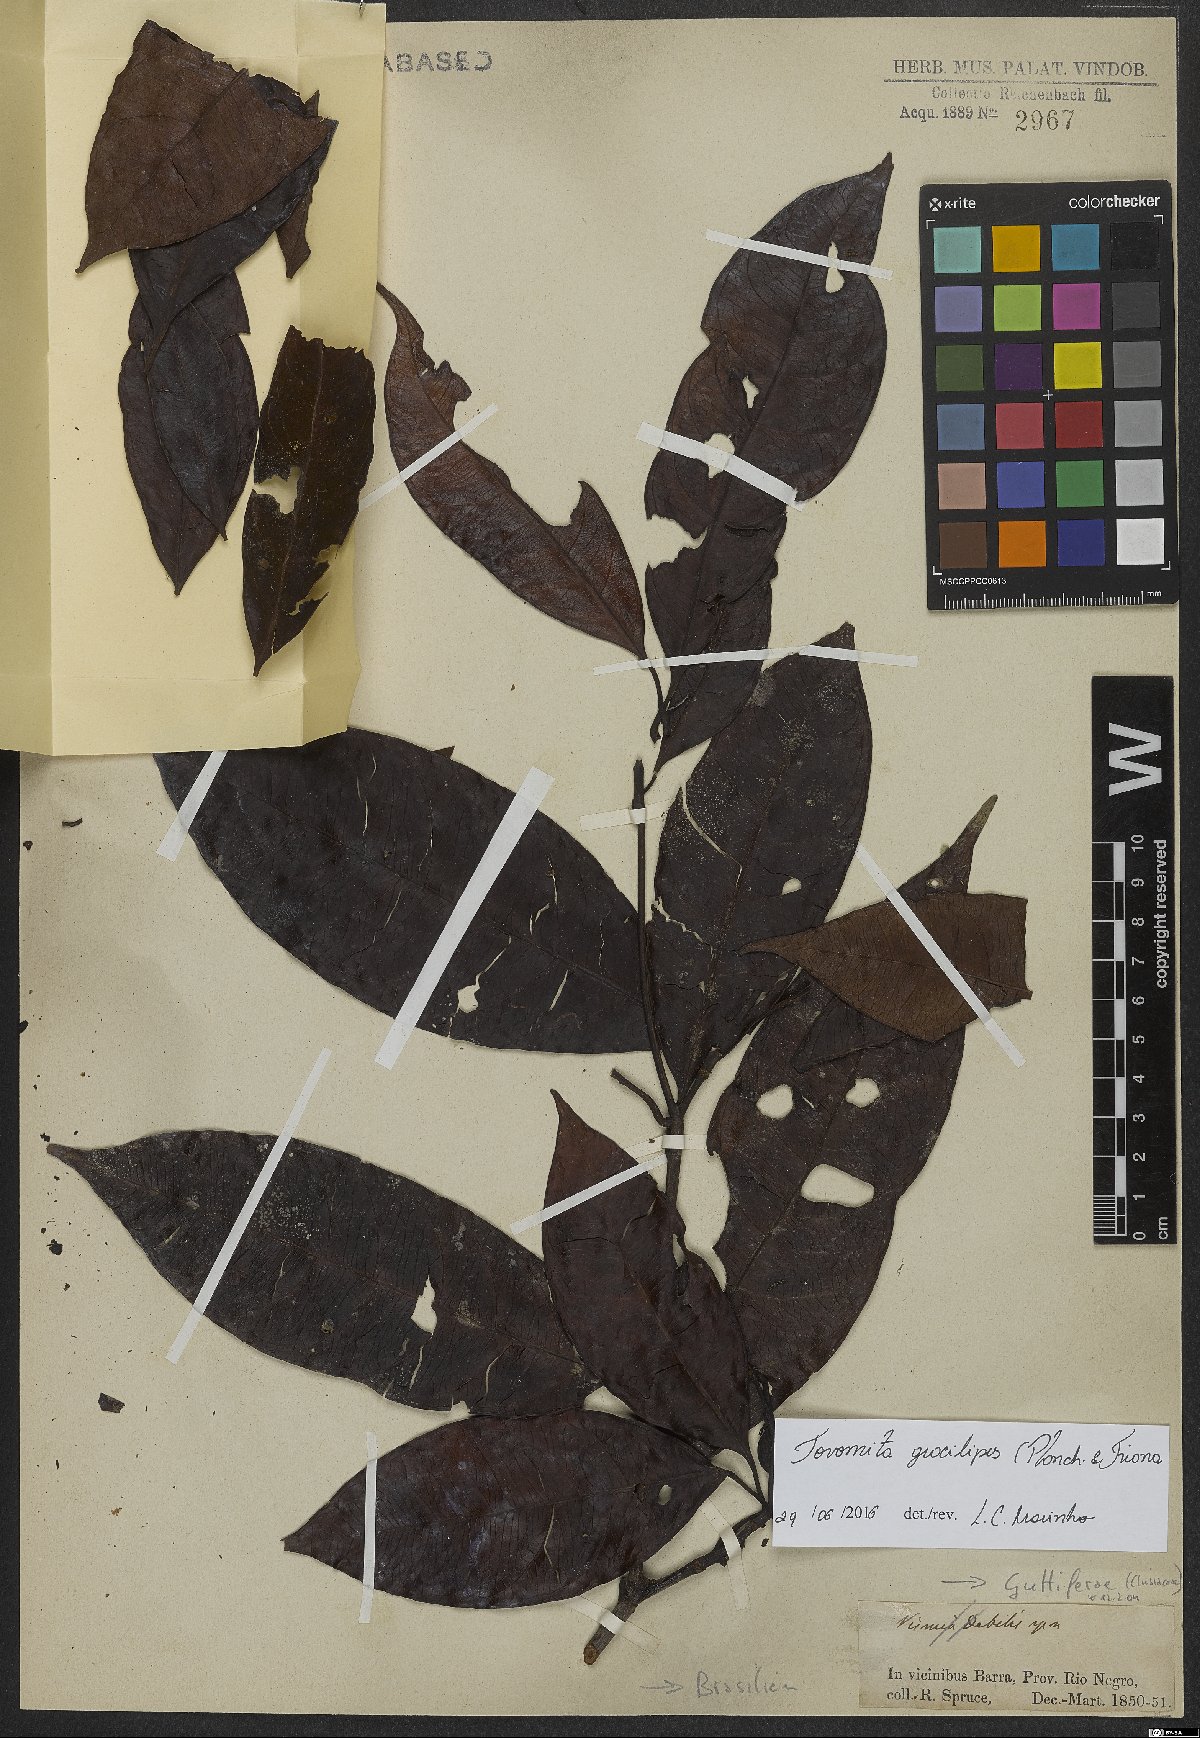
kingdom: Plantae
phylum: Tracheophyta
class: Magnoliopsida
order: Malpighiales
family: Clusiaceae
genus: Tovomita
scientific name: Tovomita gracilipes
